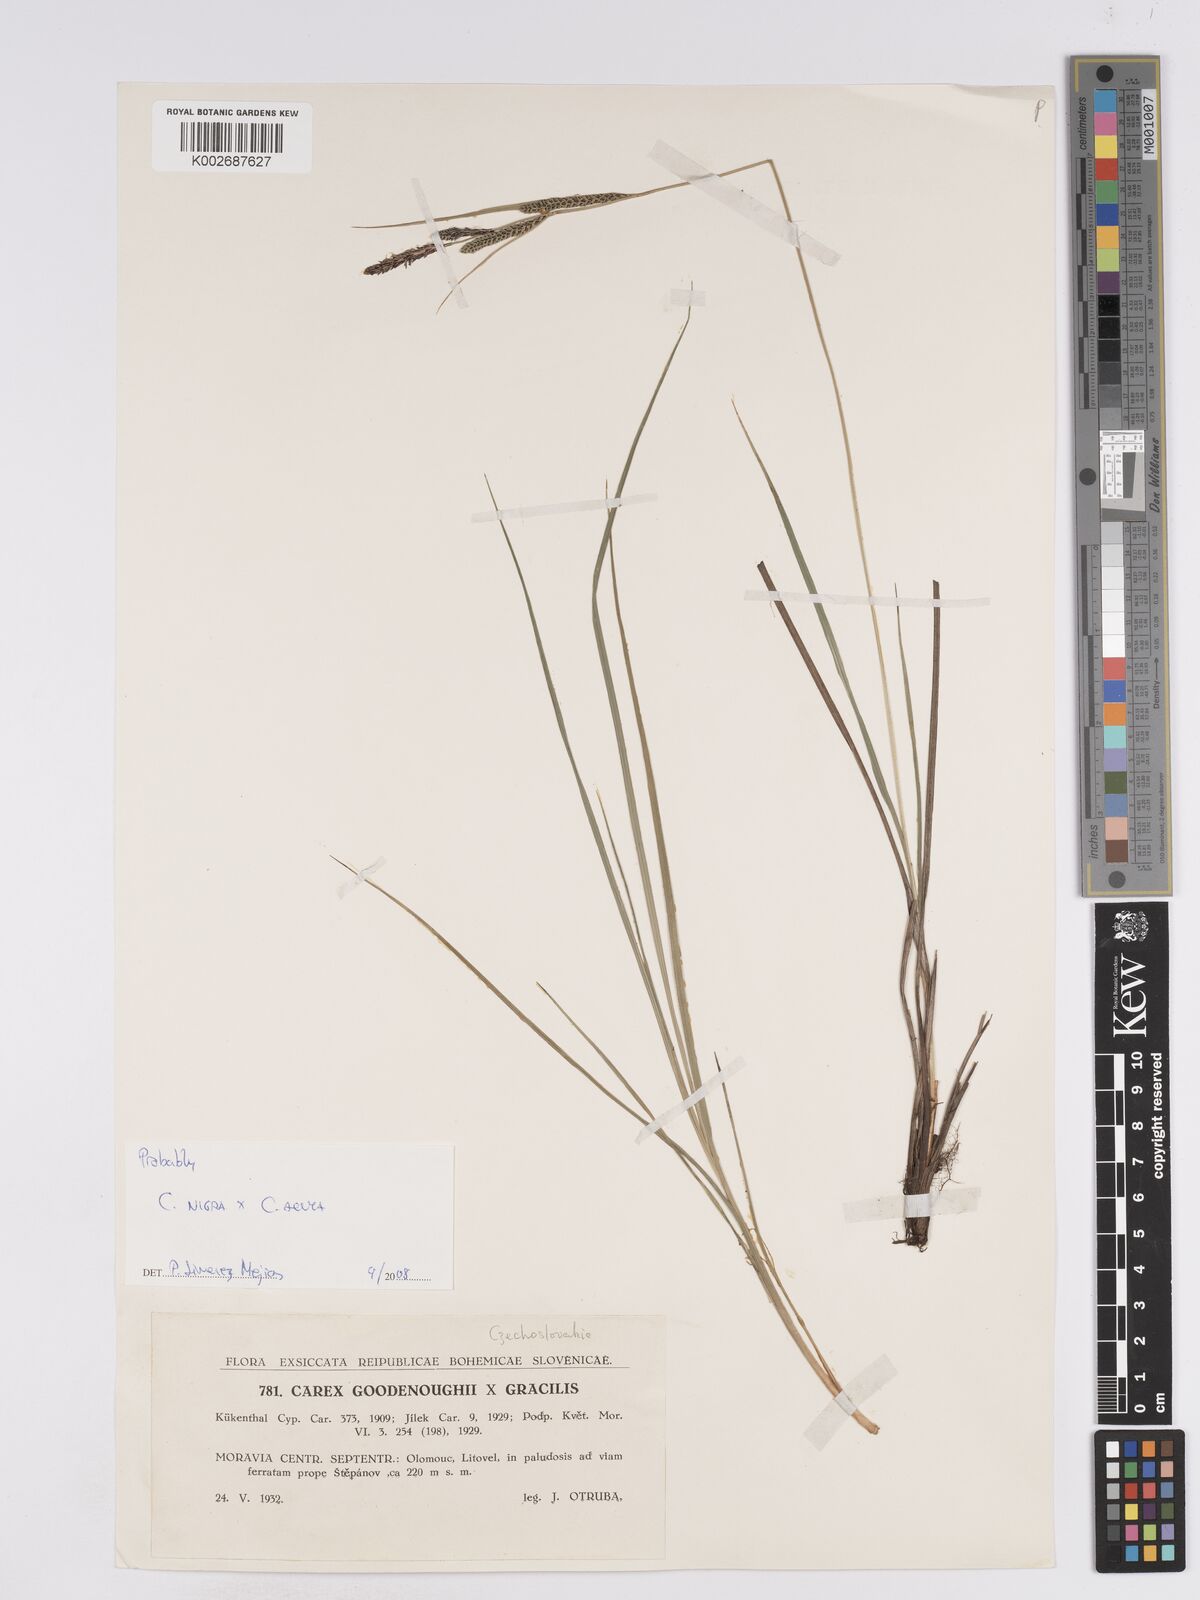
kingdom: Plantae
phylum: Tracheophyta
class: Liliopsida
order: Poales
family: Cyperaceae
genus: Carex
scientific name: Carex nigra
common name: Common sedge
